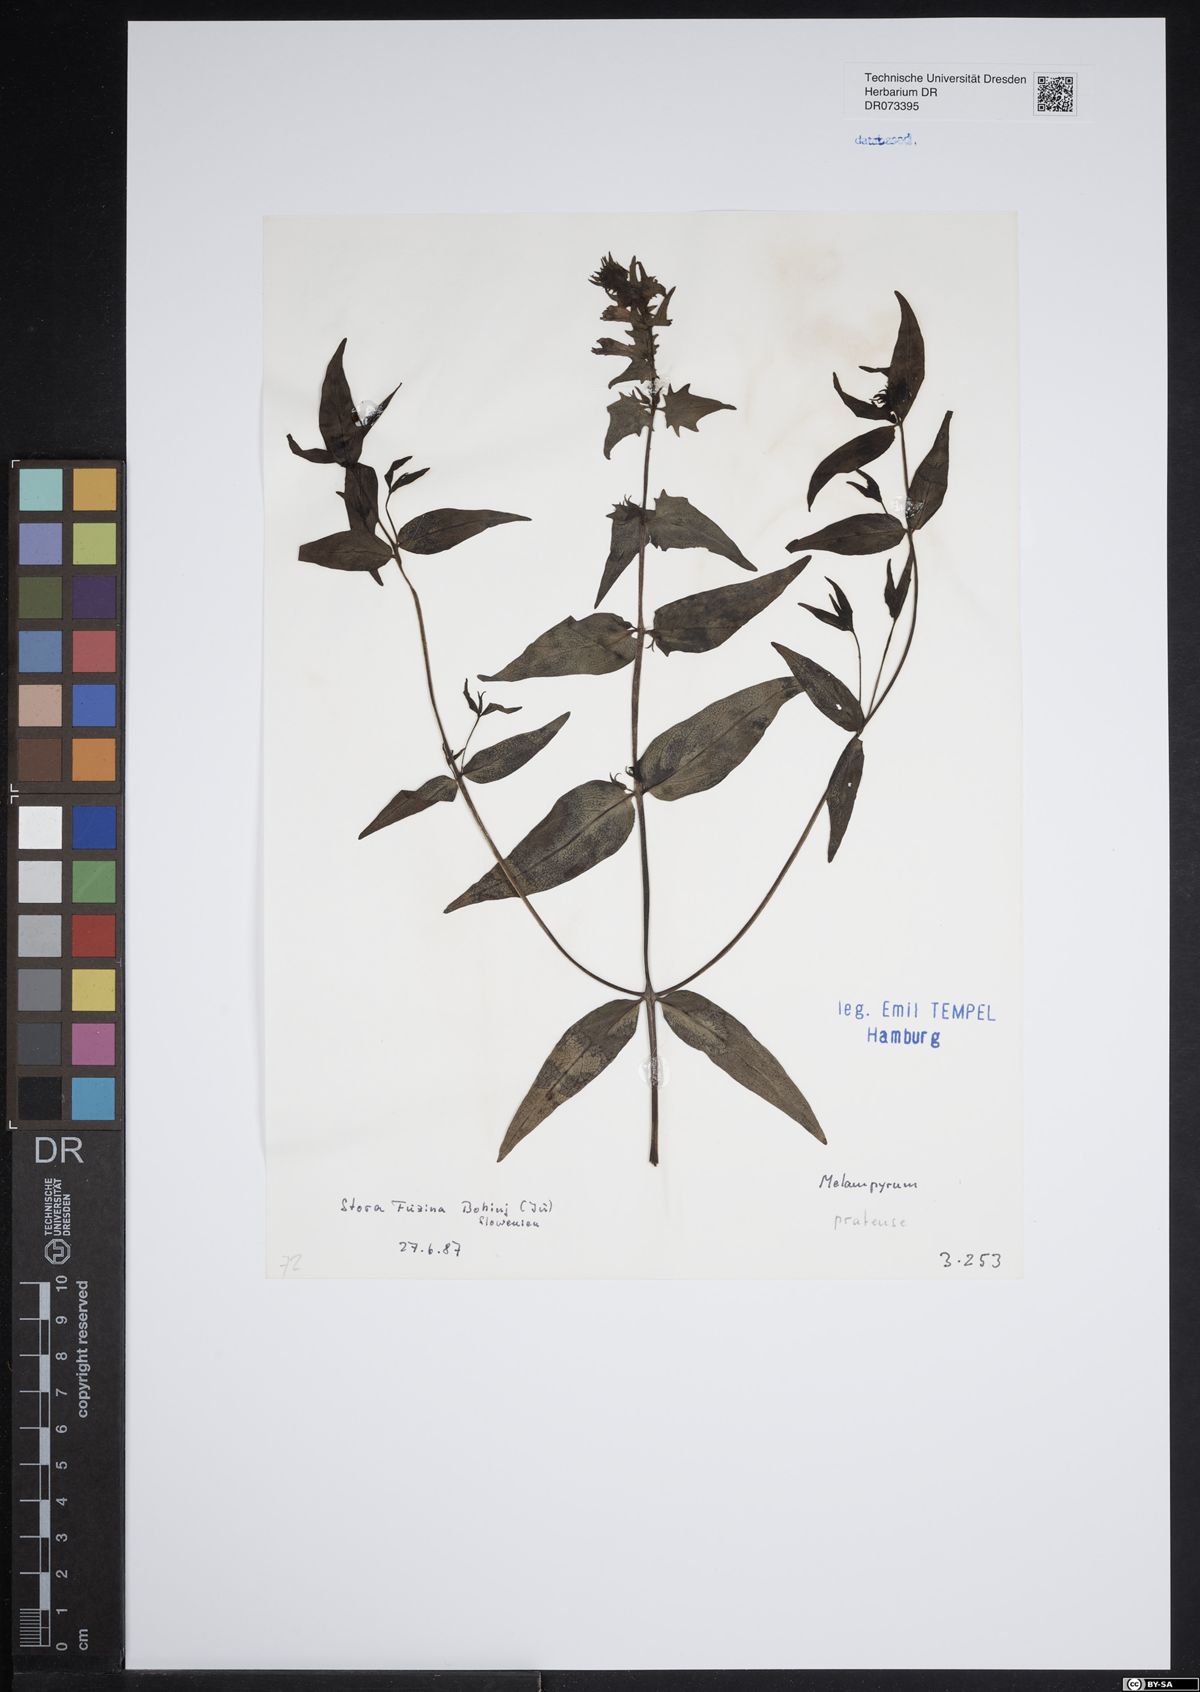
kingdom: Plantae
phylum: Tracheophyta
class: Magnoliopsida
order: Lamiales
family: Orobanchaceae
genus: Melampyrum
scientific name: Melampyrum pratense
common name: Common cow-wheat
